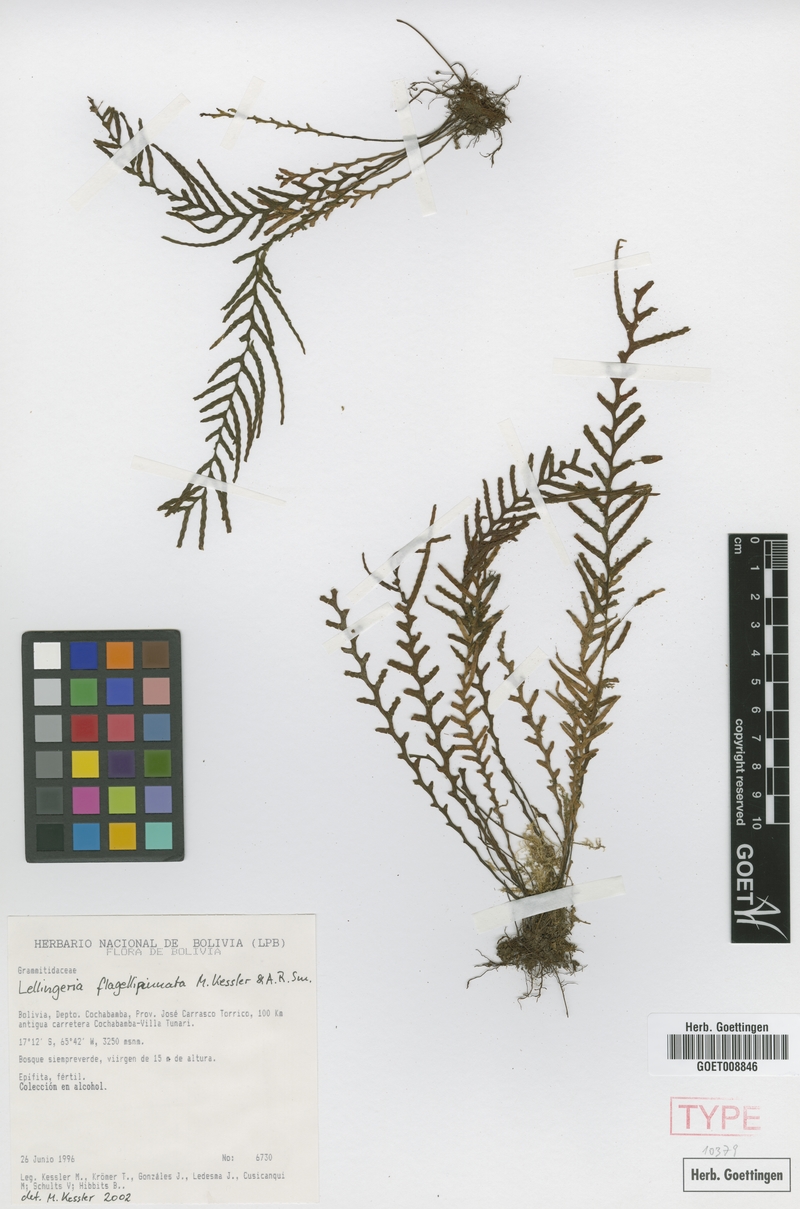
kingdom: Plantae
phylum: Tracheophyta
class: Polypodiopsida
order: Polypodiales
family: Polypodiaceae
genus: Lellingeria
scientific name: Lellingeria flagellipinnata
